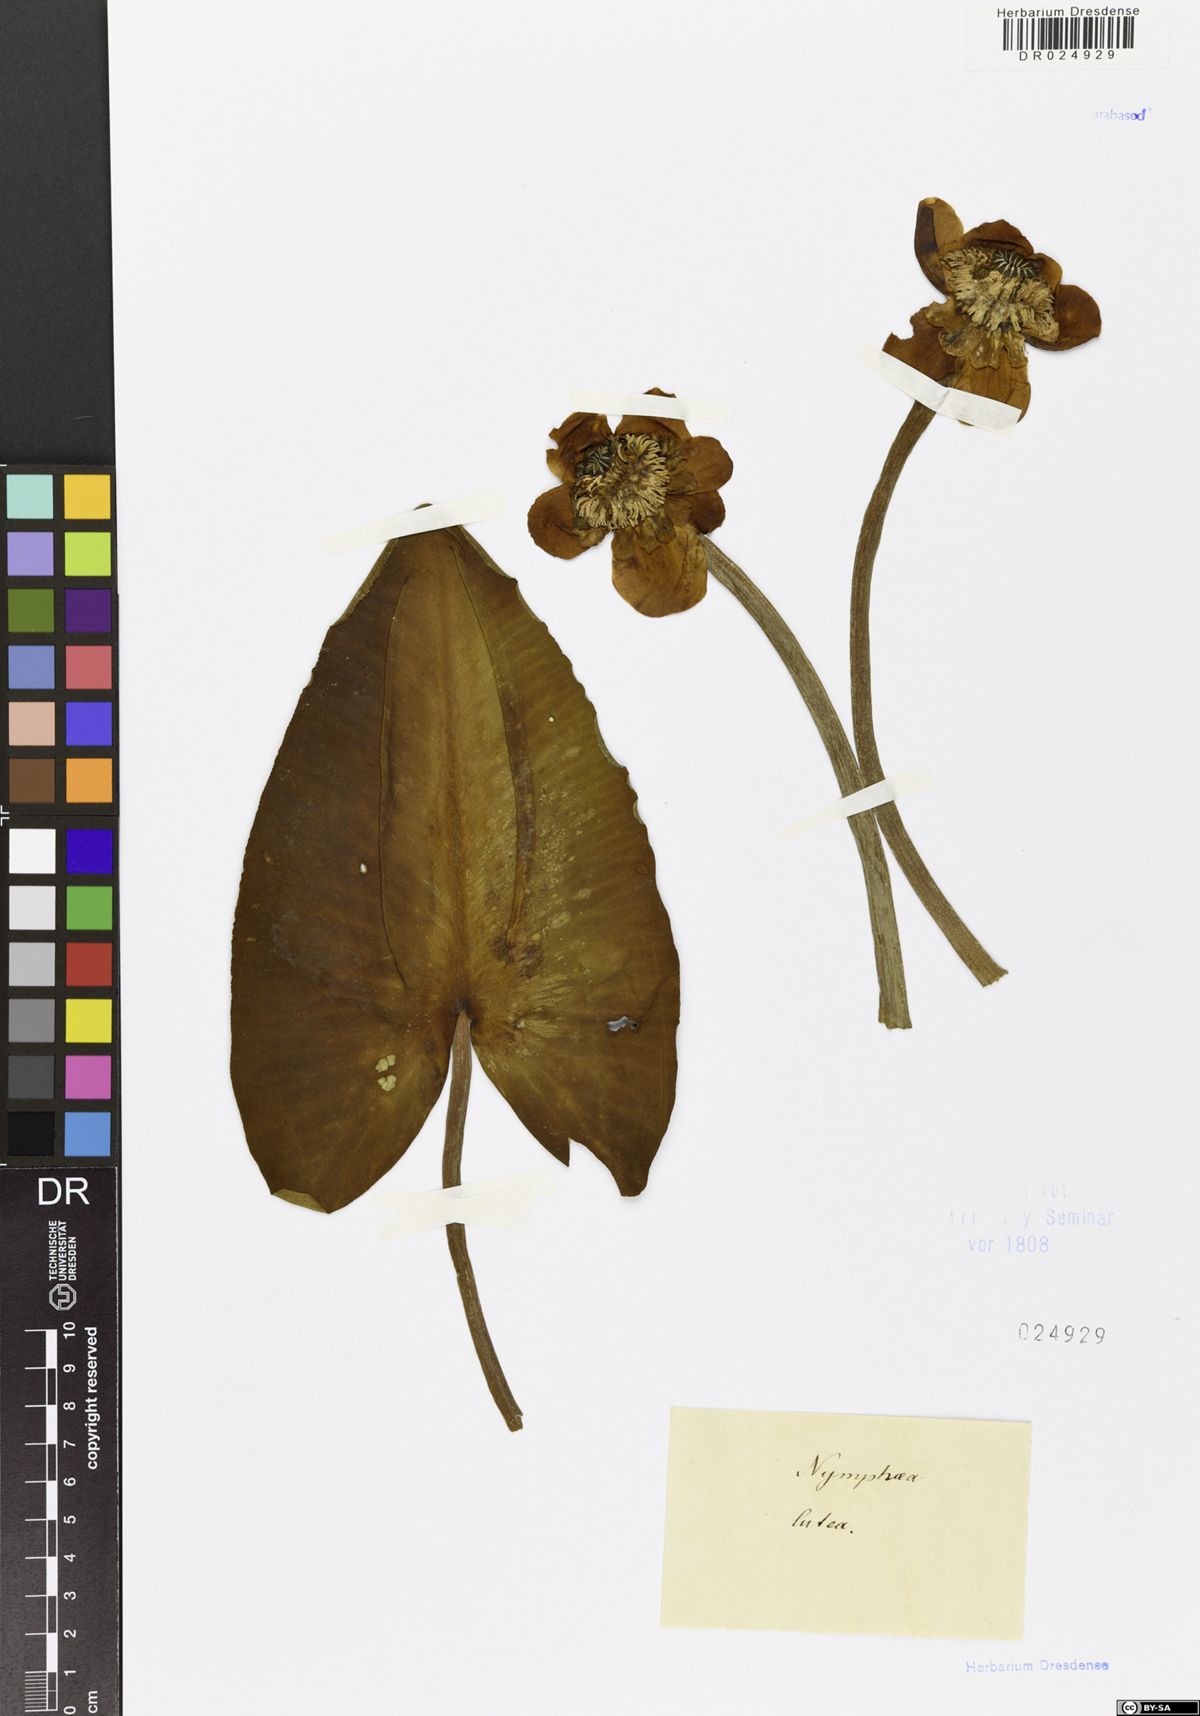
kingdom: Plantae
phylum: Tracheophyta
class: Magnoliopsida
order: Nymphaeales
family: Nymphaeaceae
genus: Nuphar
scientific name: Nuphar lutea
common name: Yellow water-lily
